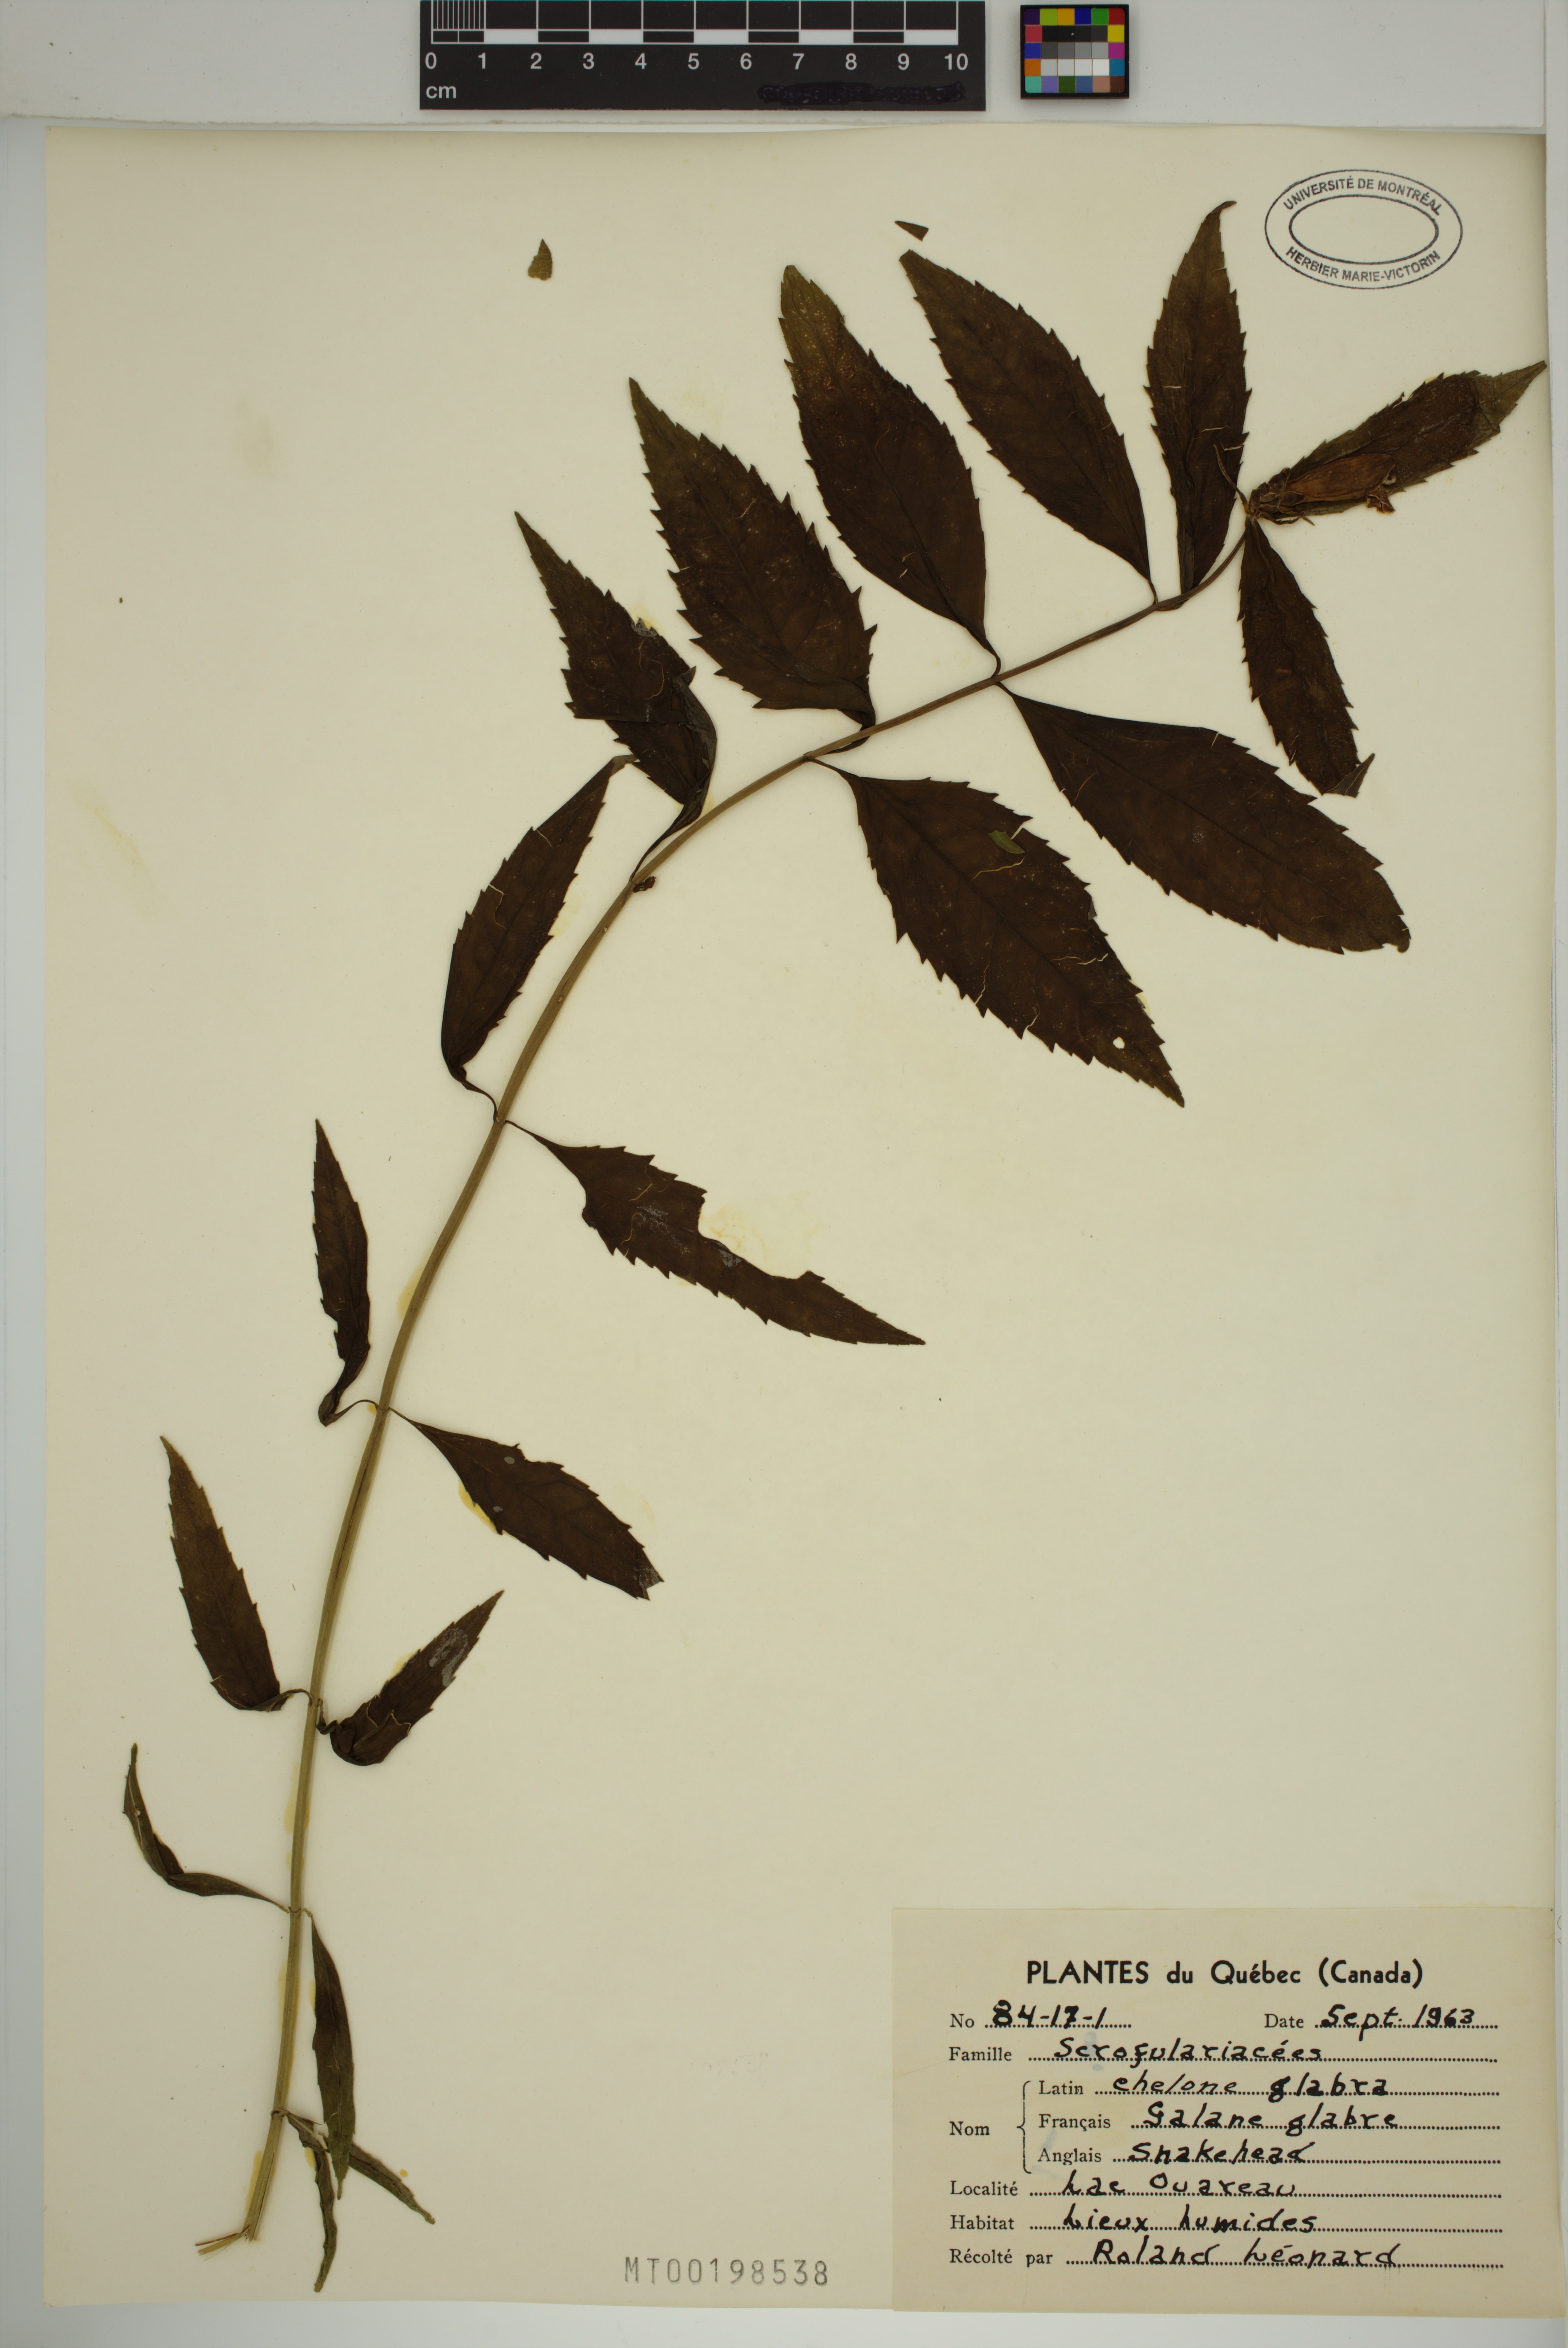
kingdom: Plantae
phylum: Tracheophyta
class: Magnoliopsida
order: Lamiales
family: Plantaginaceae
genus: Chelone
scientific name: Chelone glabra
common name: Snakehead
